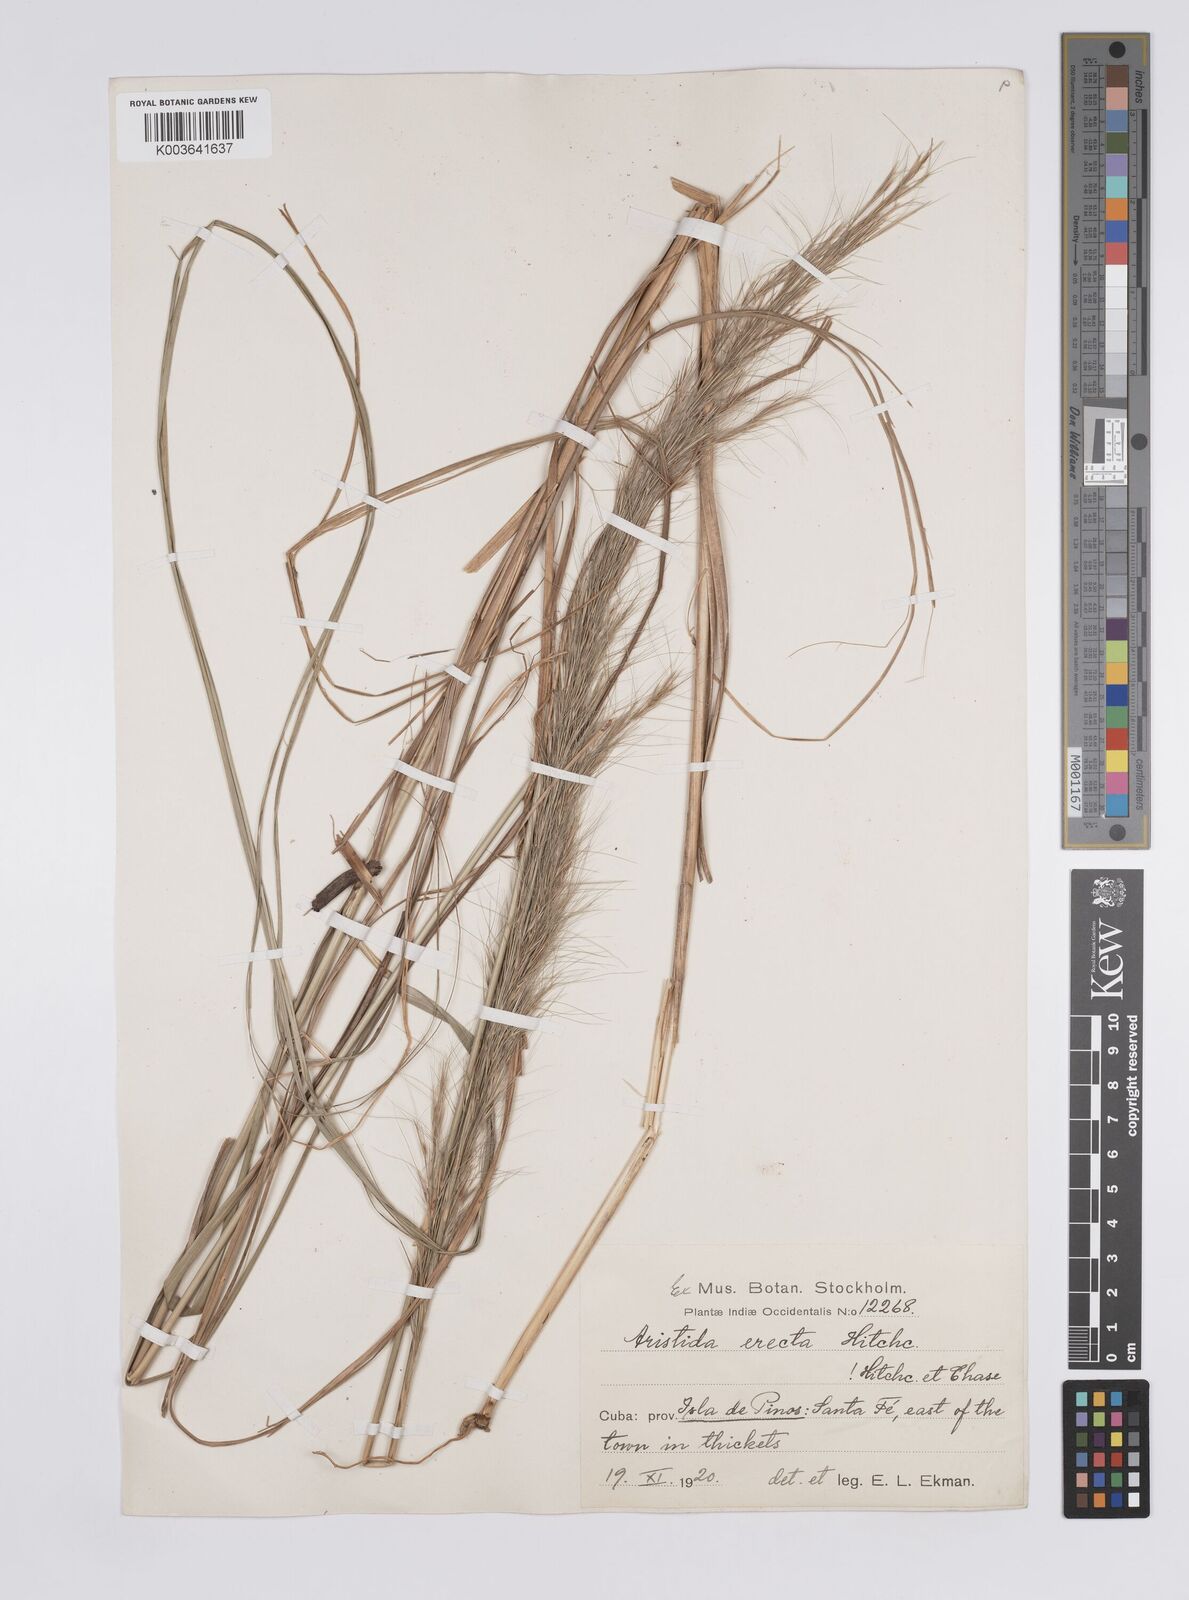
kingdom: Plantae
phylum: Tracheophyta
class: Liliopsida
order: Poales
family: Poaceae
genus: Aristida
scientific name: Aristida erecta
